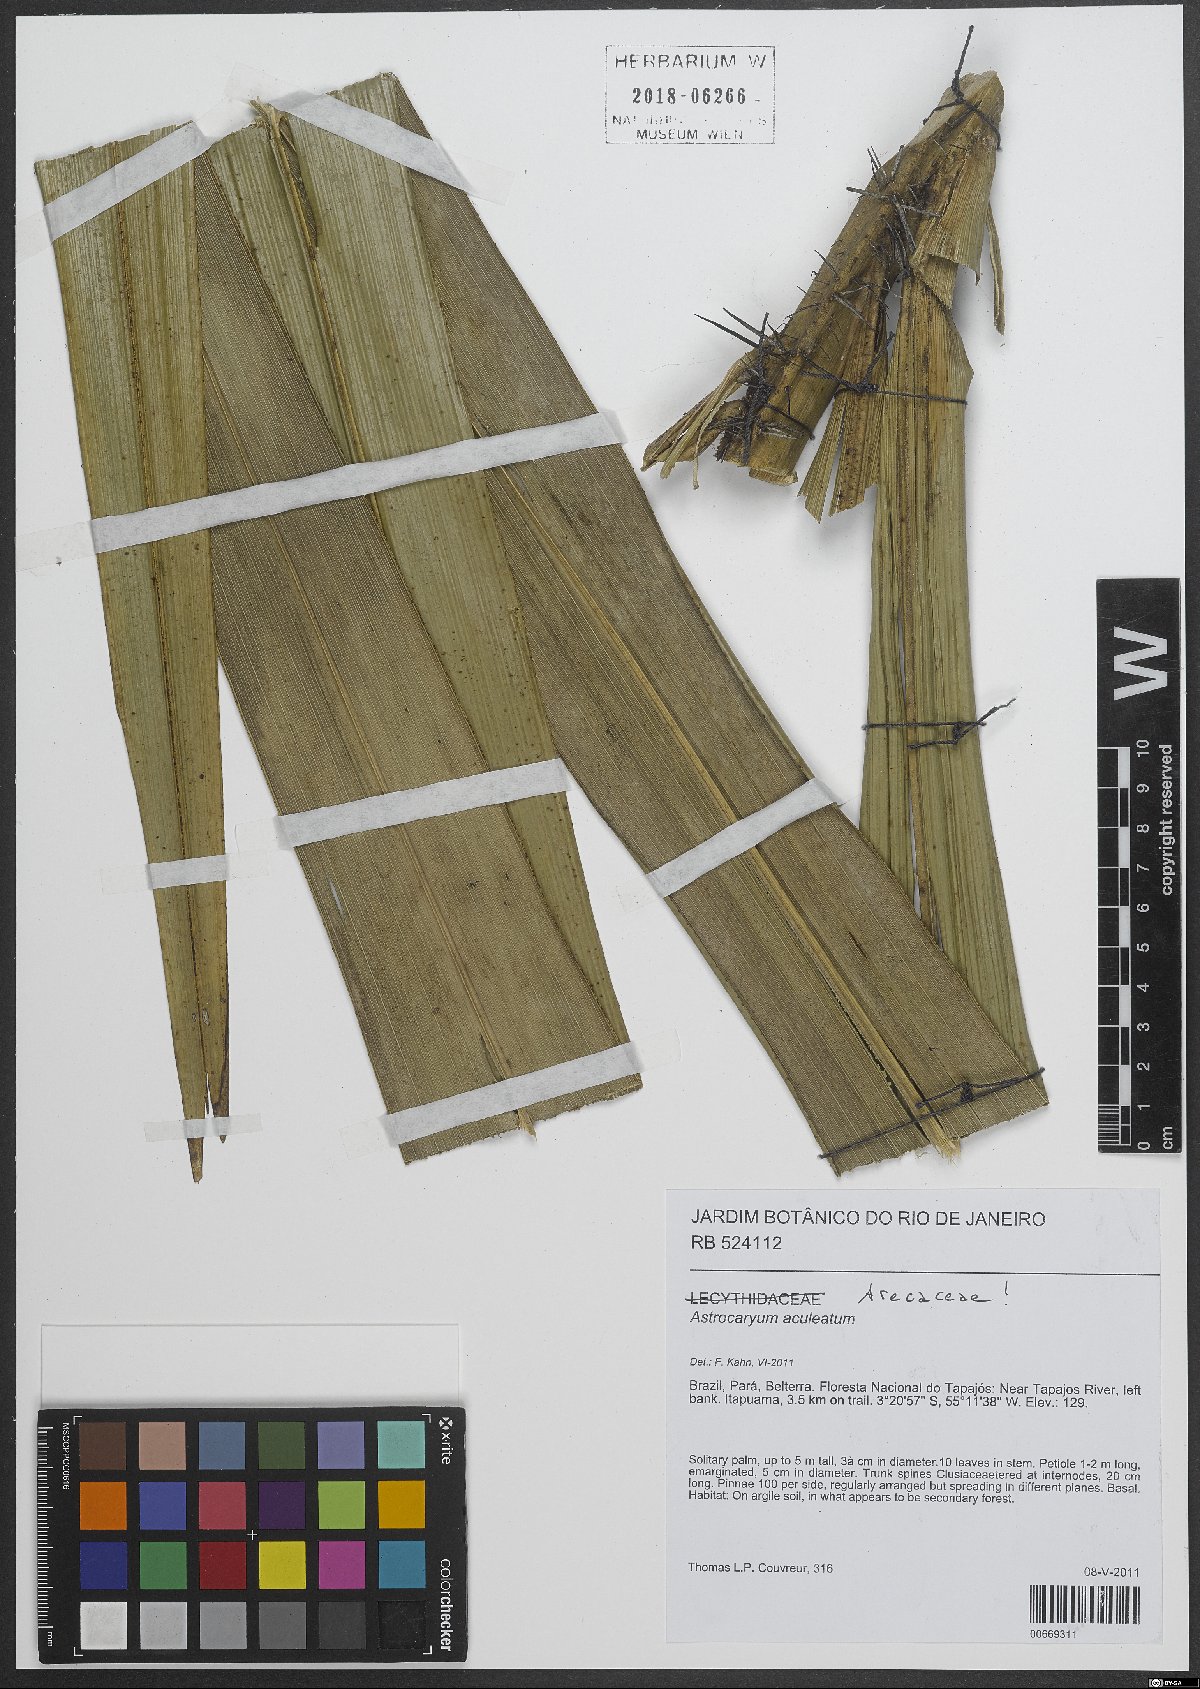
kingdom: Plantae
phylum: Tracheophyta
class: Liliopsida
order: Arecales
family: Arecaceae
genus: Astrocaryum
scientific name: Astrocaryum aculeatum
